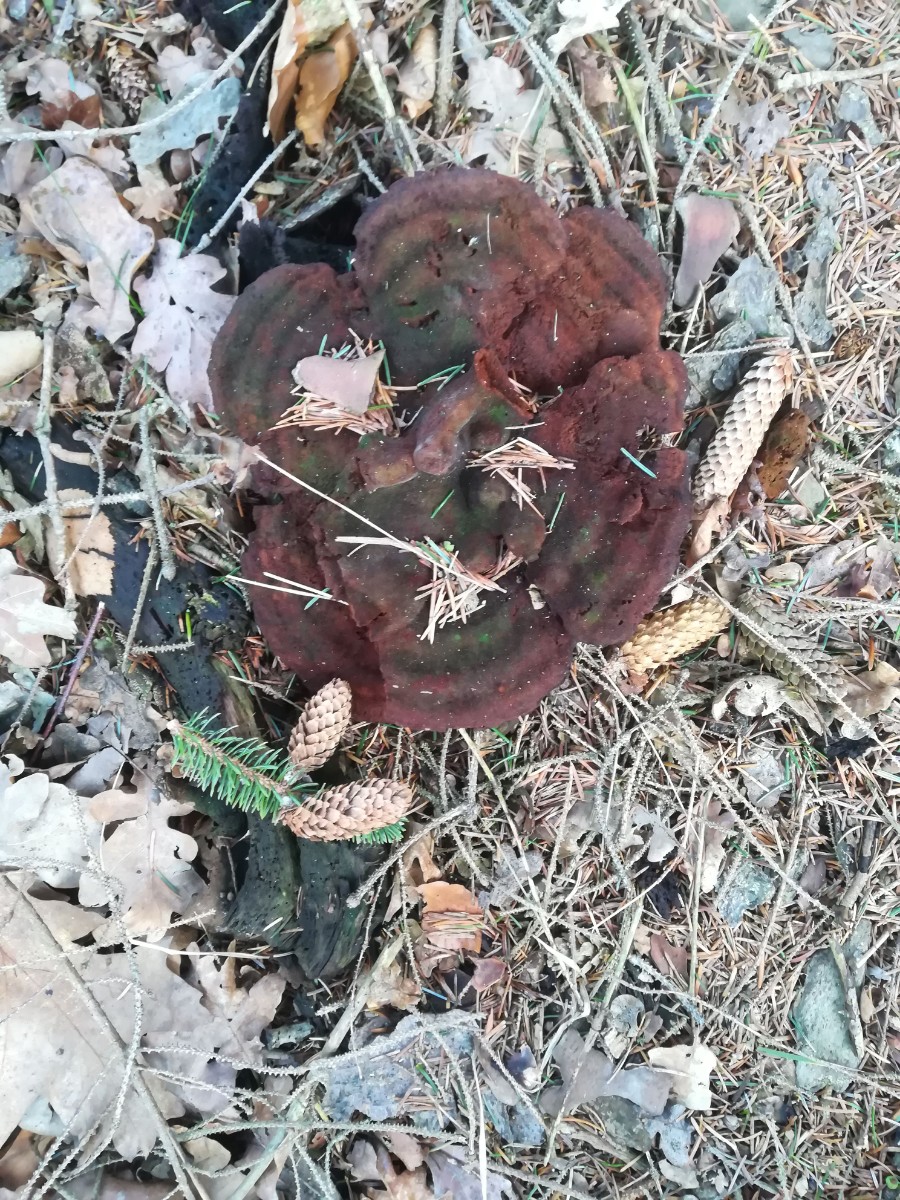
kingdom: Fungi
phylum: Basidiomycota
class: Agaricomycetes
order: Polyporales
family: Laetiporaceae
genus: Phaeolus
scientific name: Phaeolus schweinitzii
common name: brunporesvamp
